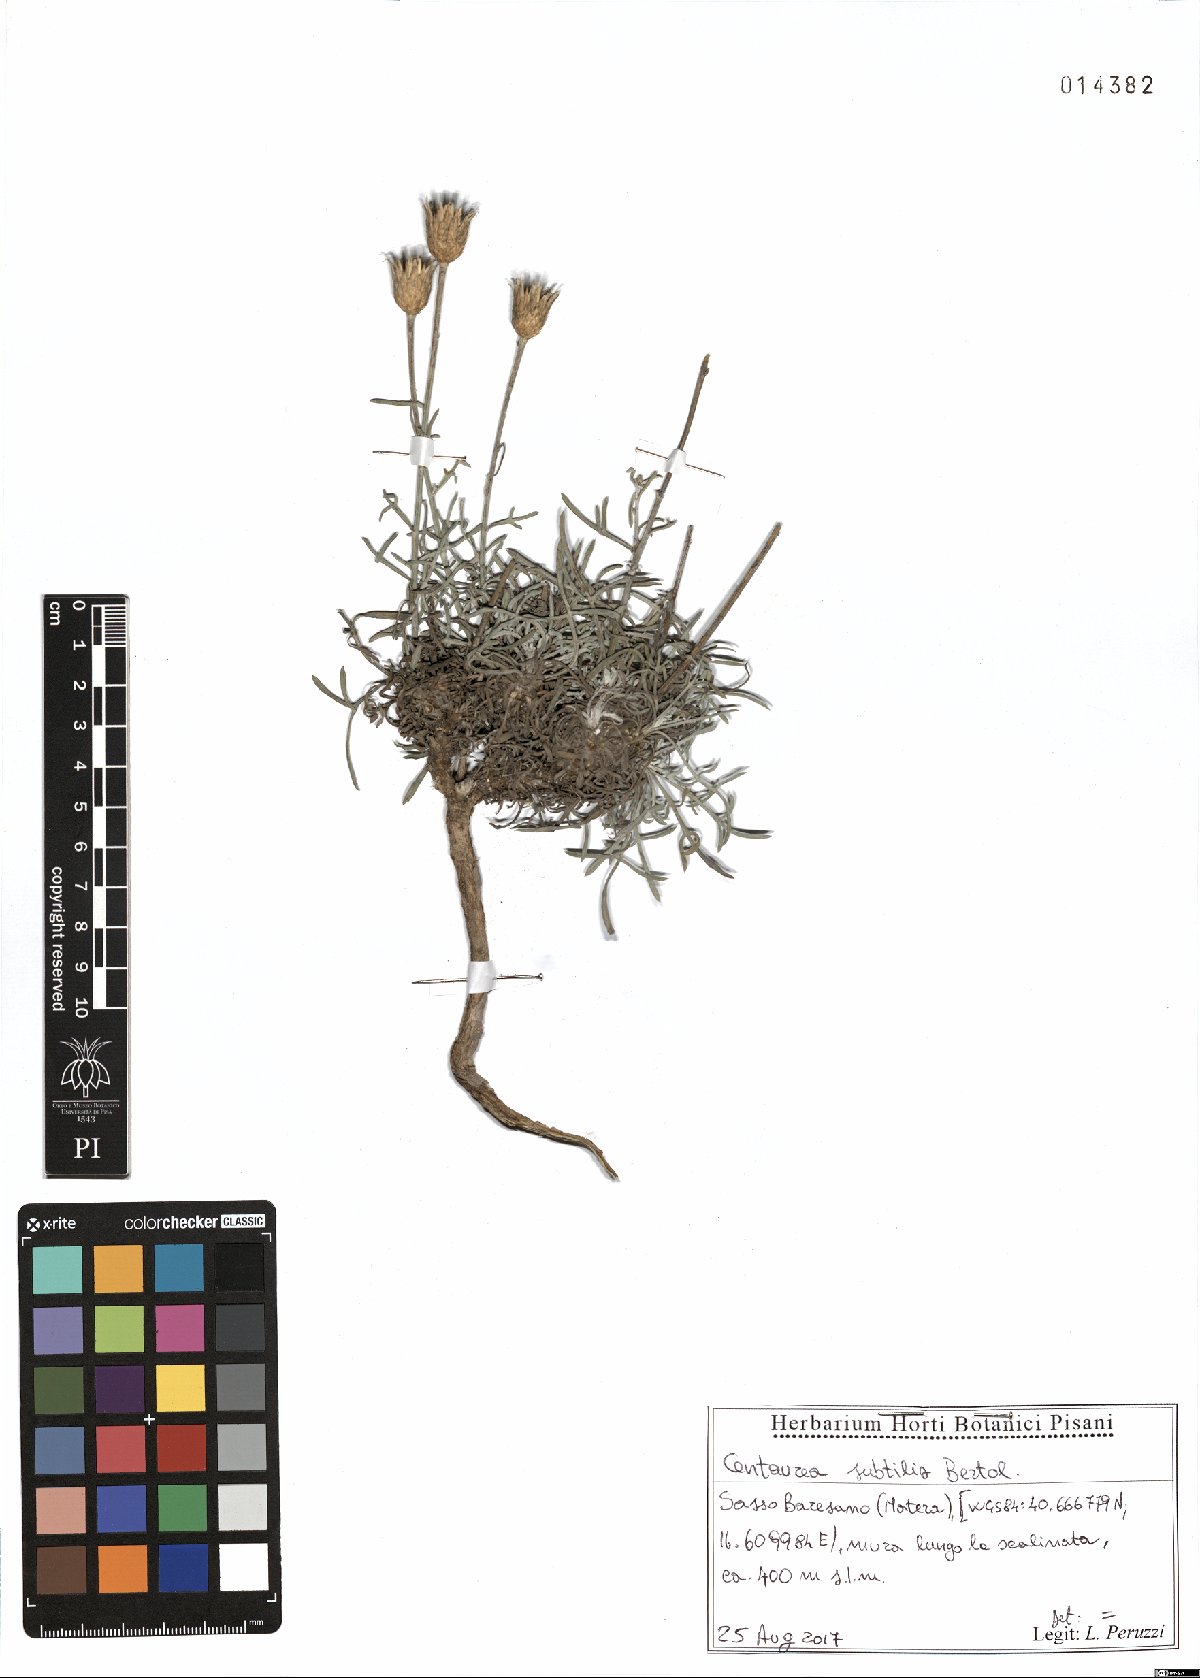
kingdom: Plantae
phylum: Tracheophyta
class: Magnoliopsida
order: Asterales
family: Asteraceae
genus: Centaurea
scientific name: Centaurea subtilis
